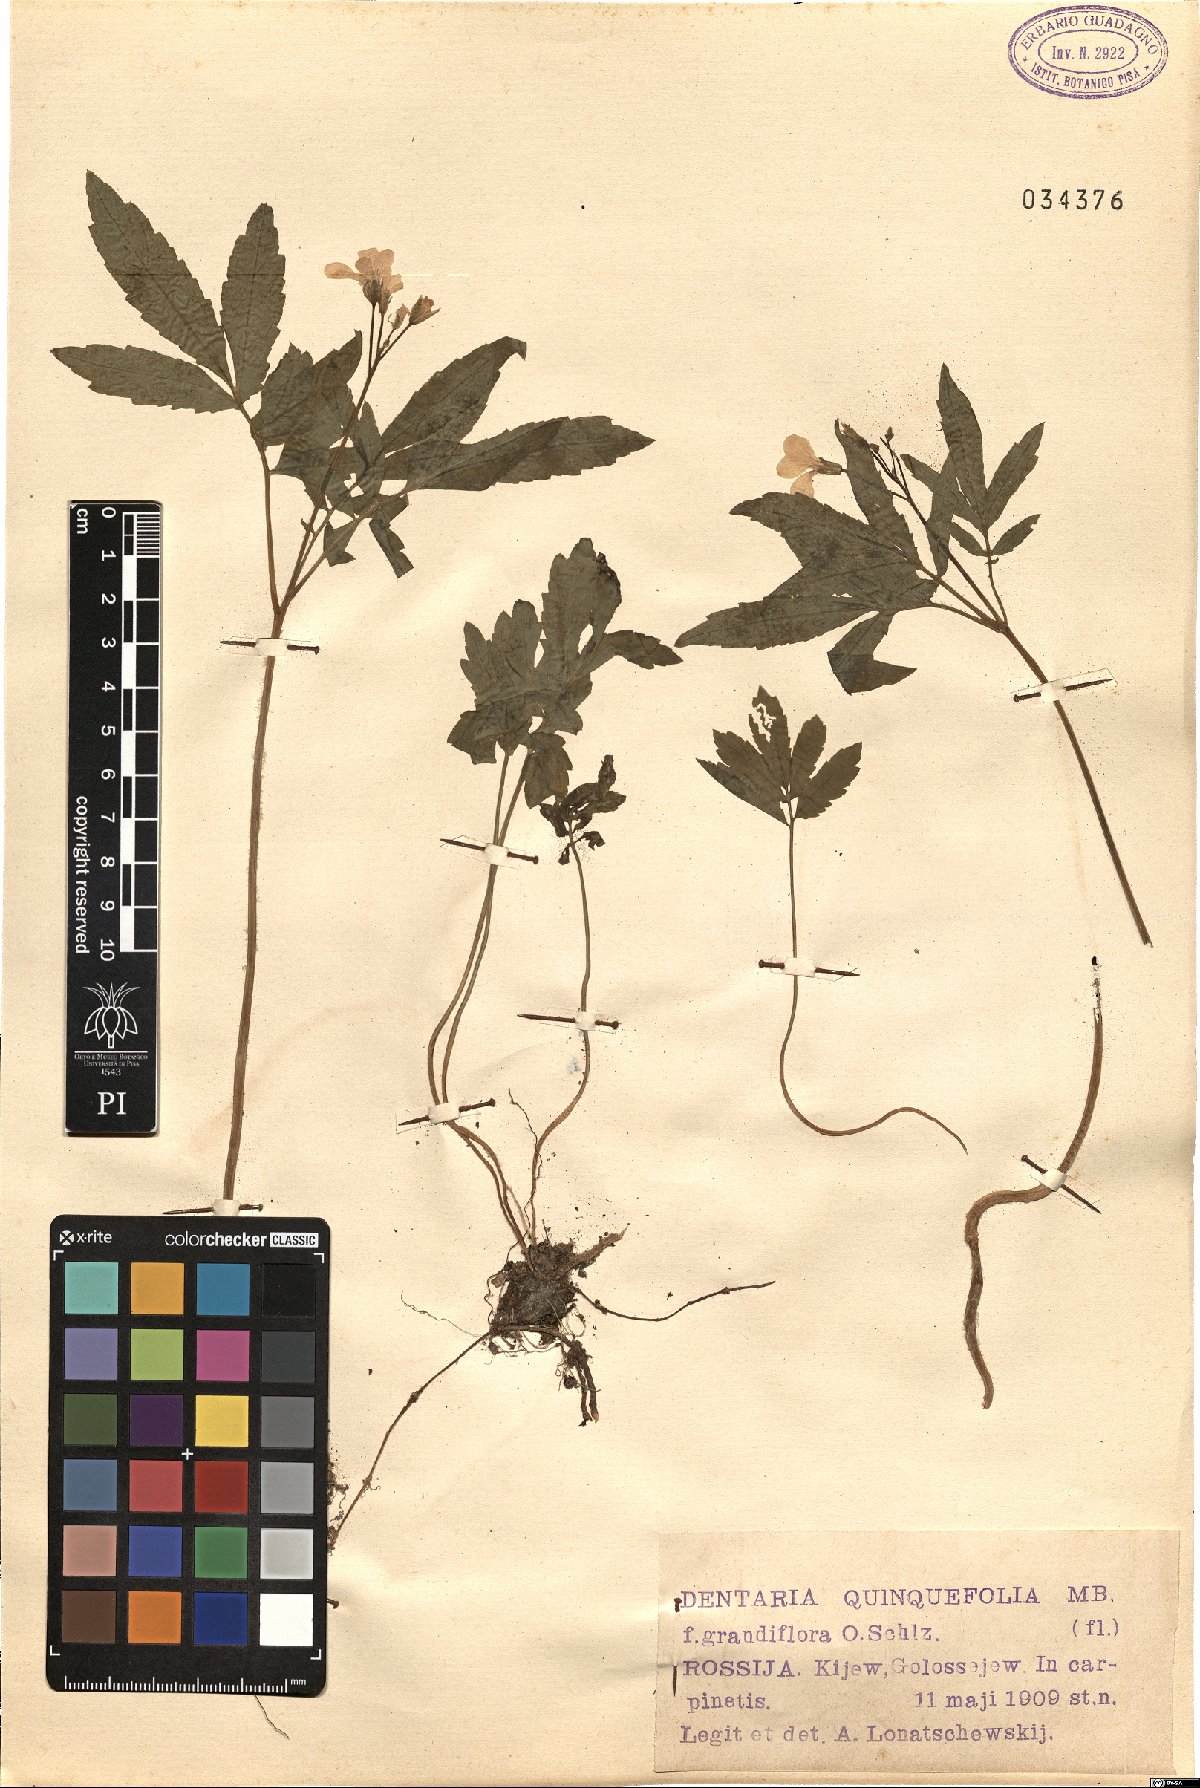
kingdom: Plantae
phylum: Tracheophyta
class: Magnoliopsida
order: Brassicales
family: Brassicaceae
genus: Cardamine
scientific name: Cardamine quinquefolia
